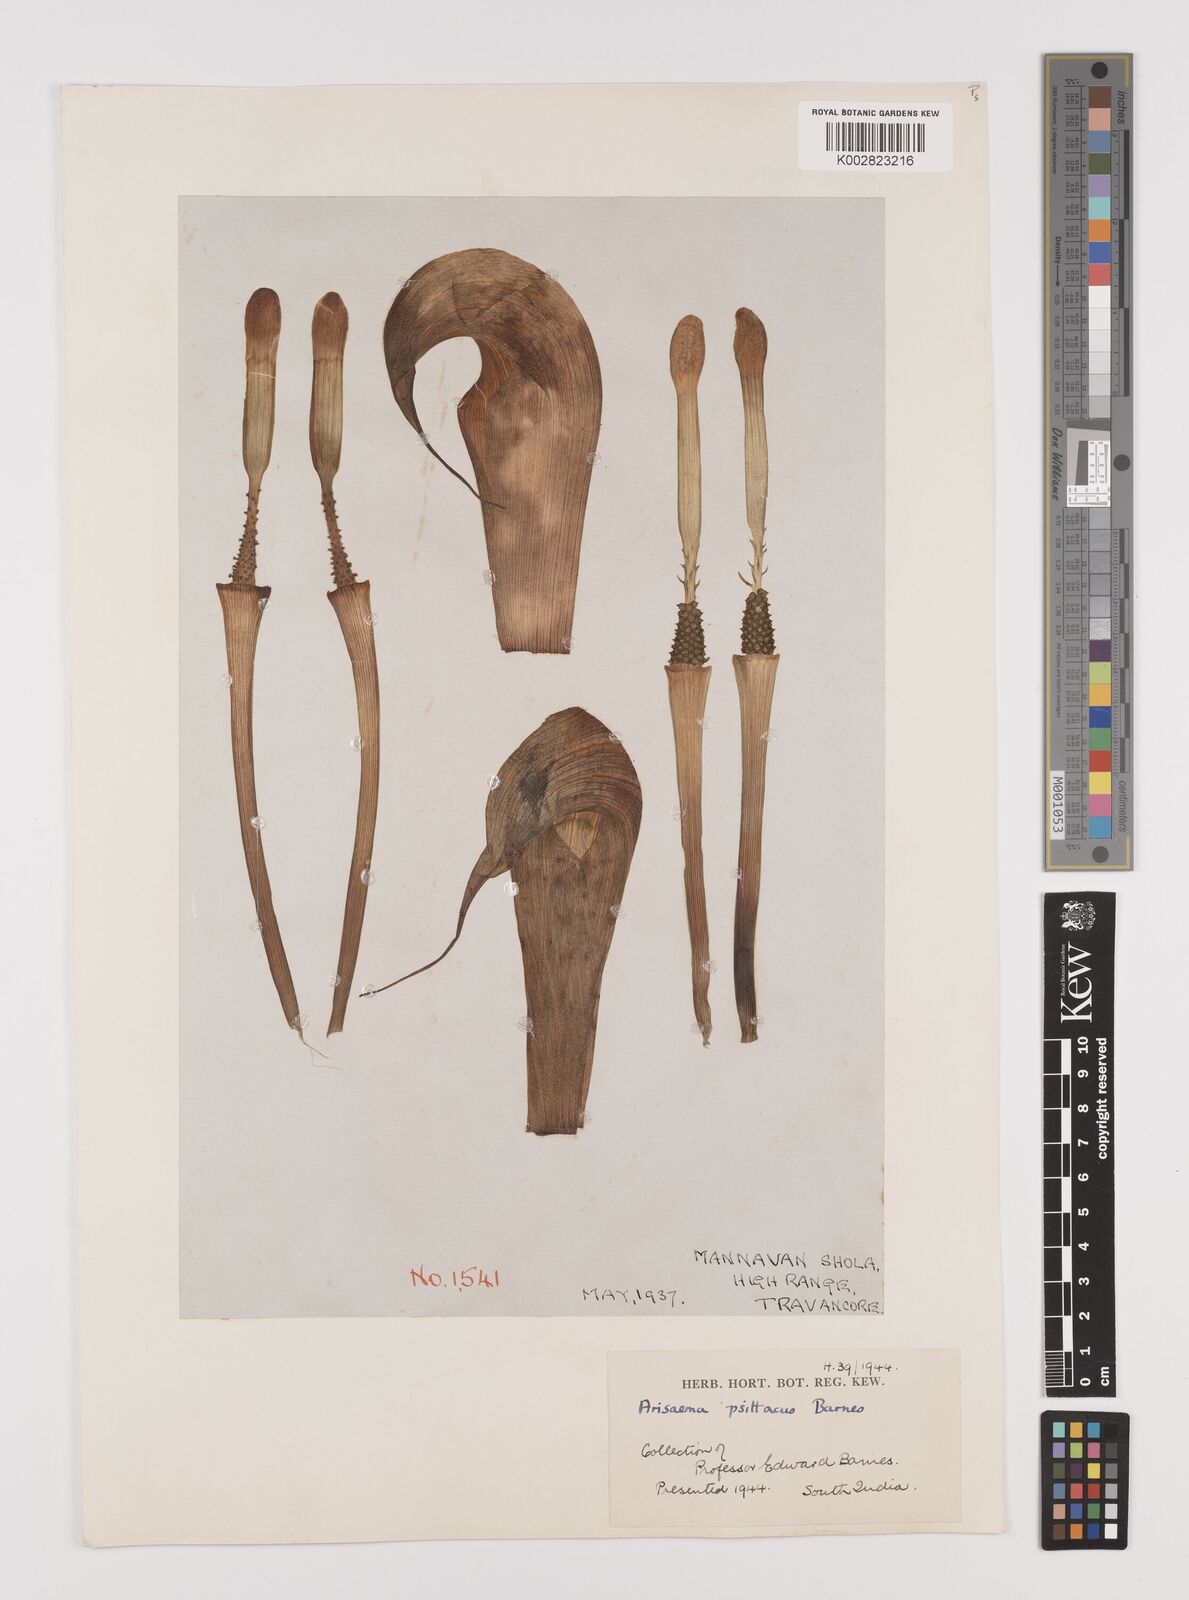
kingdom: Plantae
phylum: Tracheophyta
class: Liliopsida
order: Alismatales
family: Araceae
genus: Arisaema
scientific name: Arisaema psittacus
